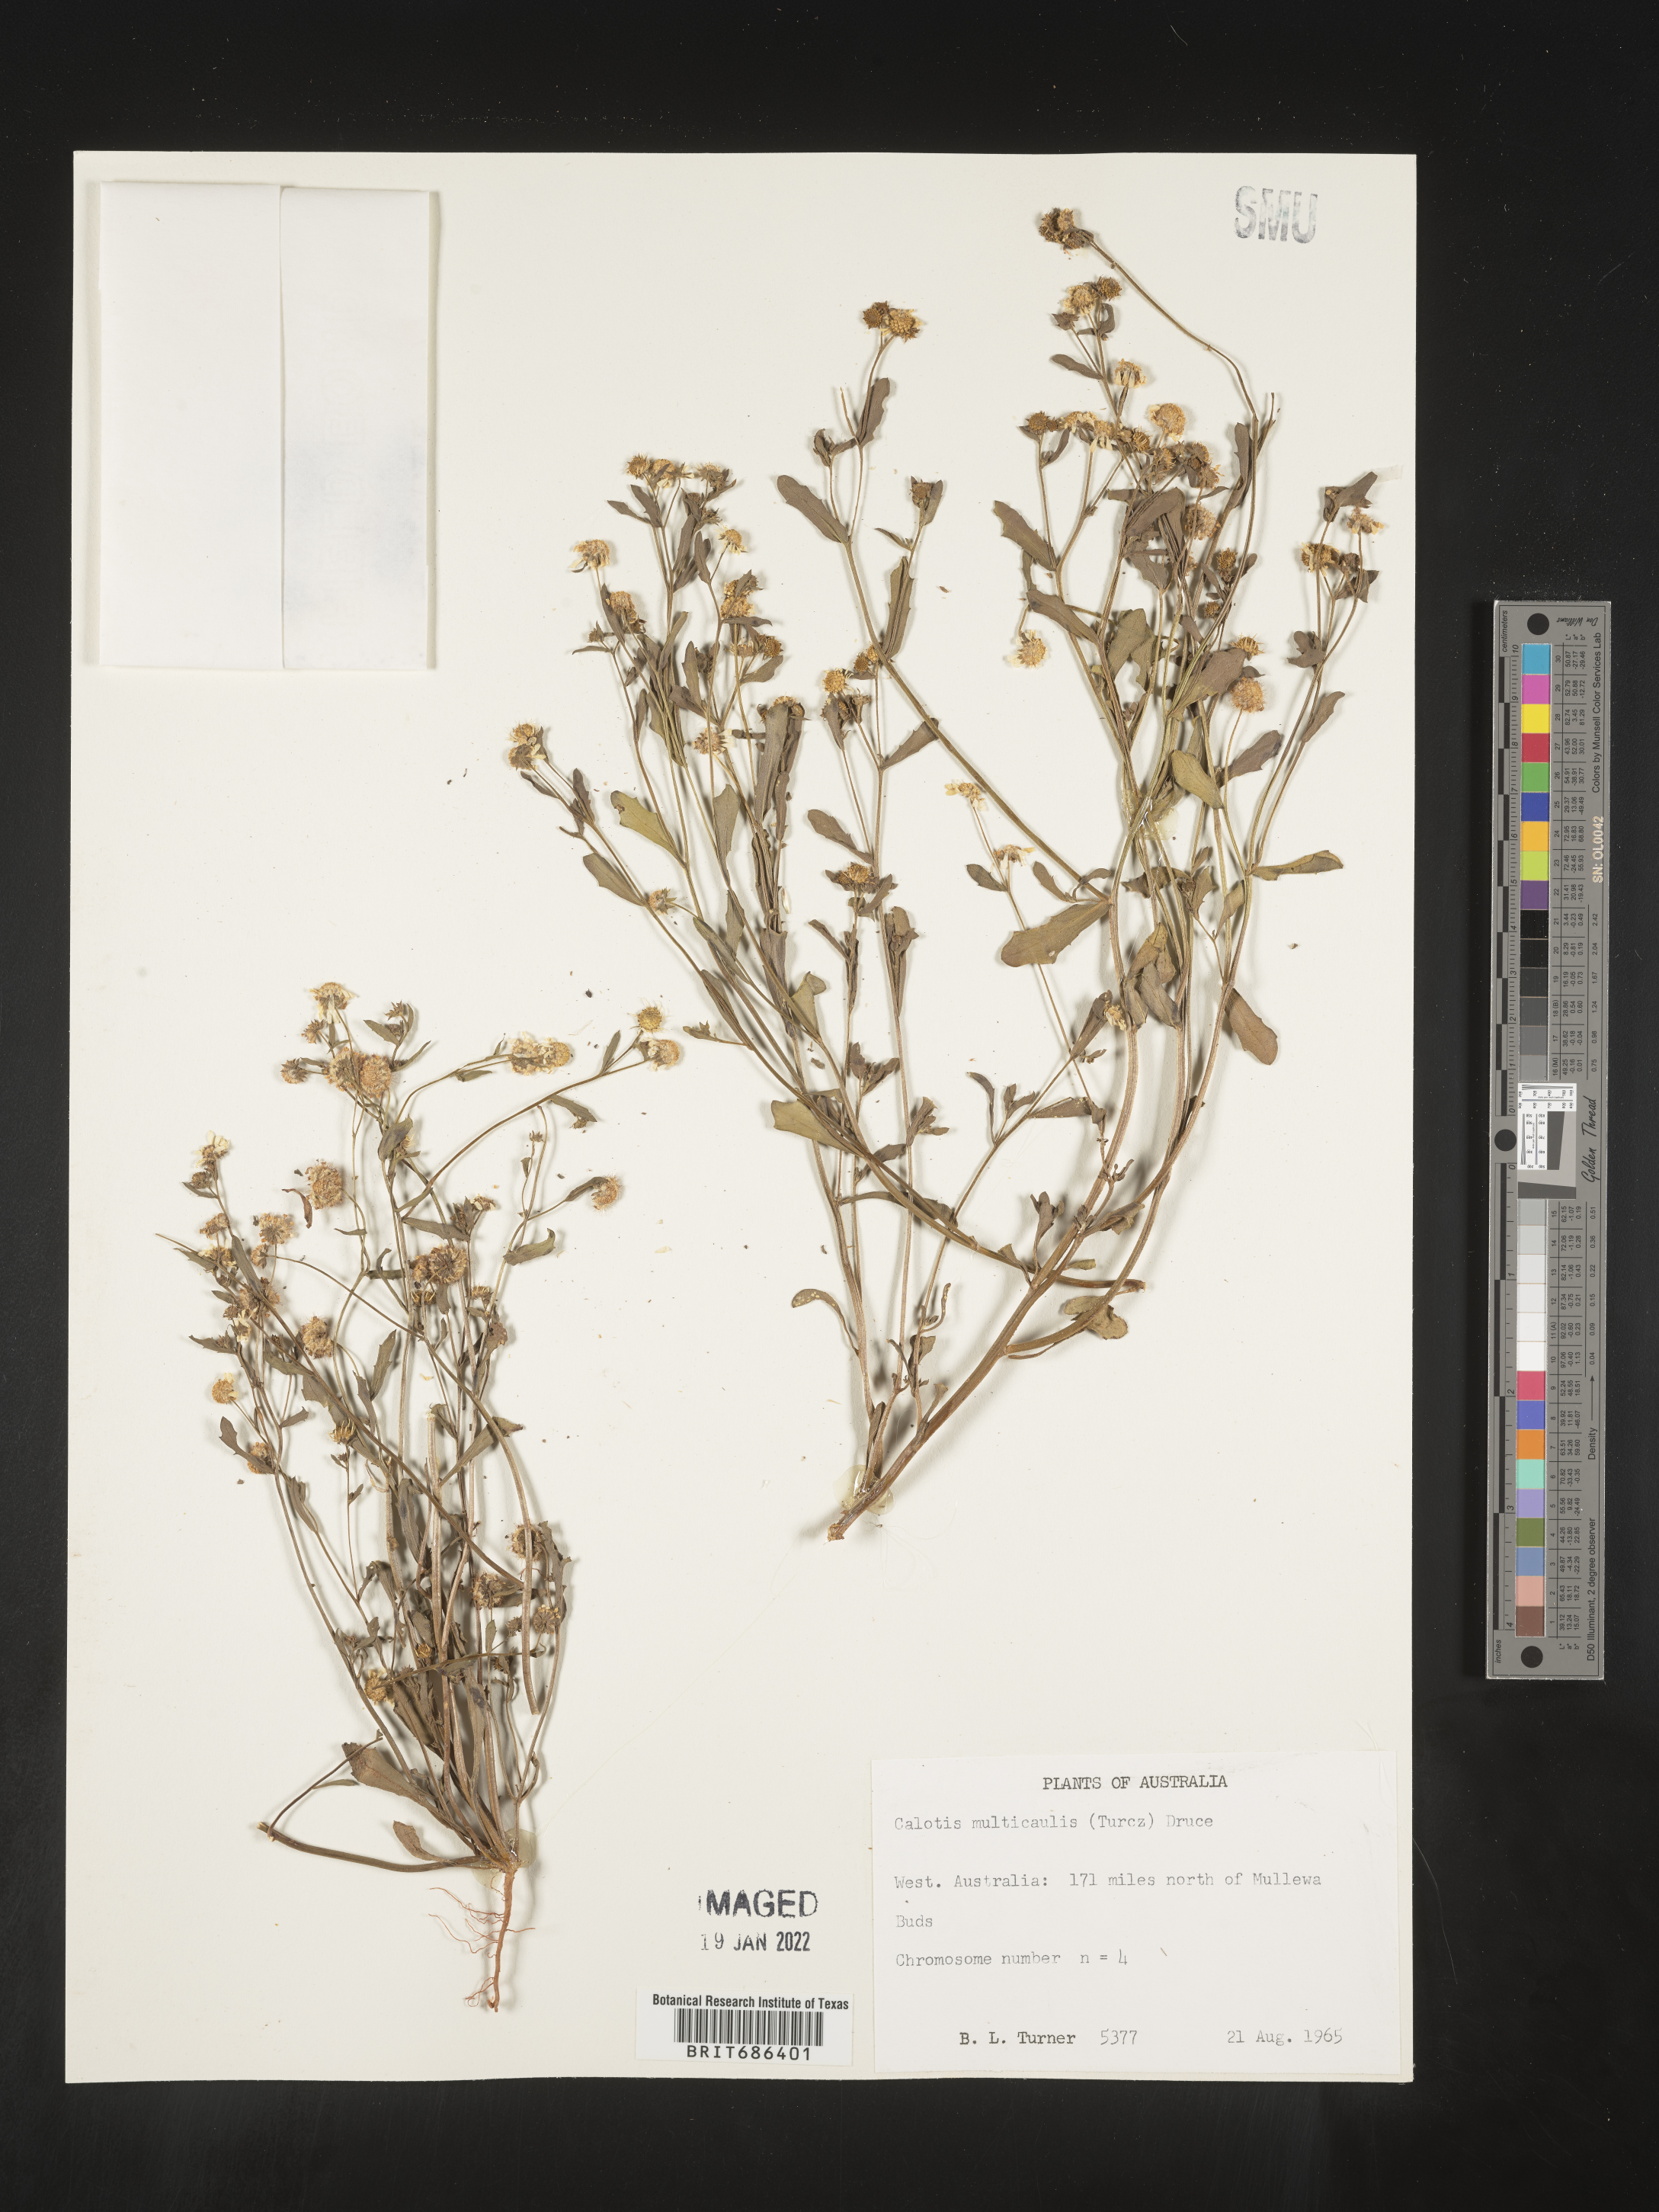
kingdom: Plantae
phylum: Tracheophyta
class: Magnoliopsida
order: Asterales
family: Asteraceae
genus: Calotis
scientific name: Calotis
